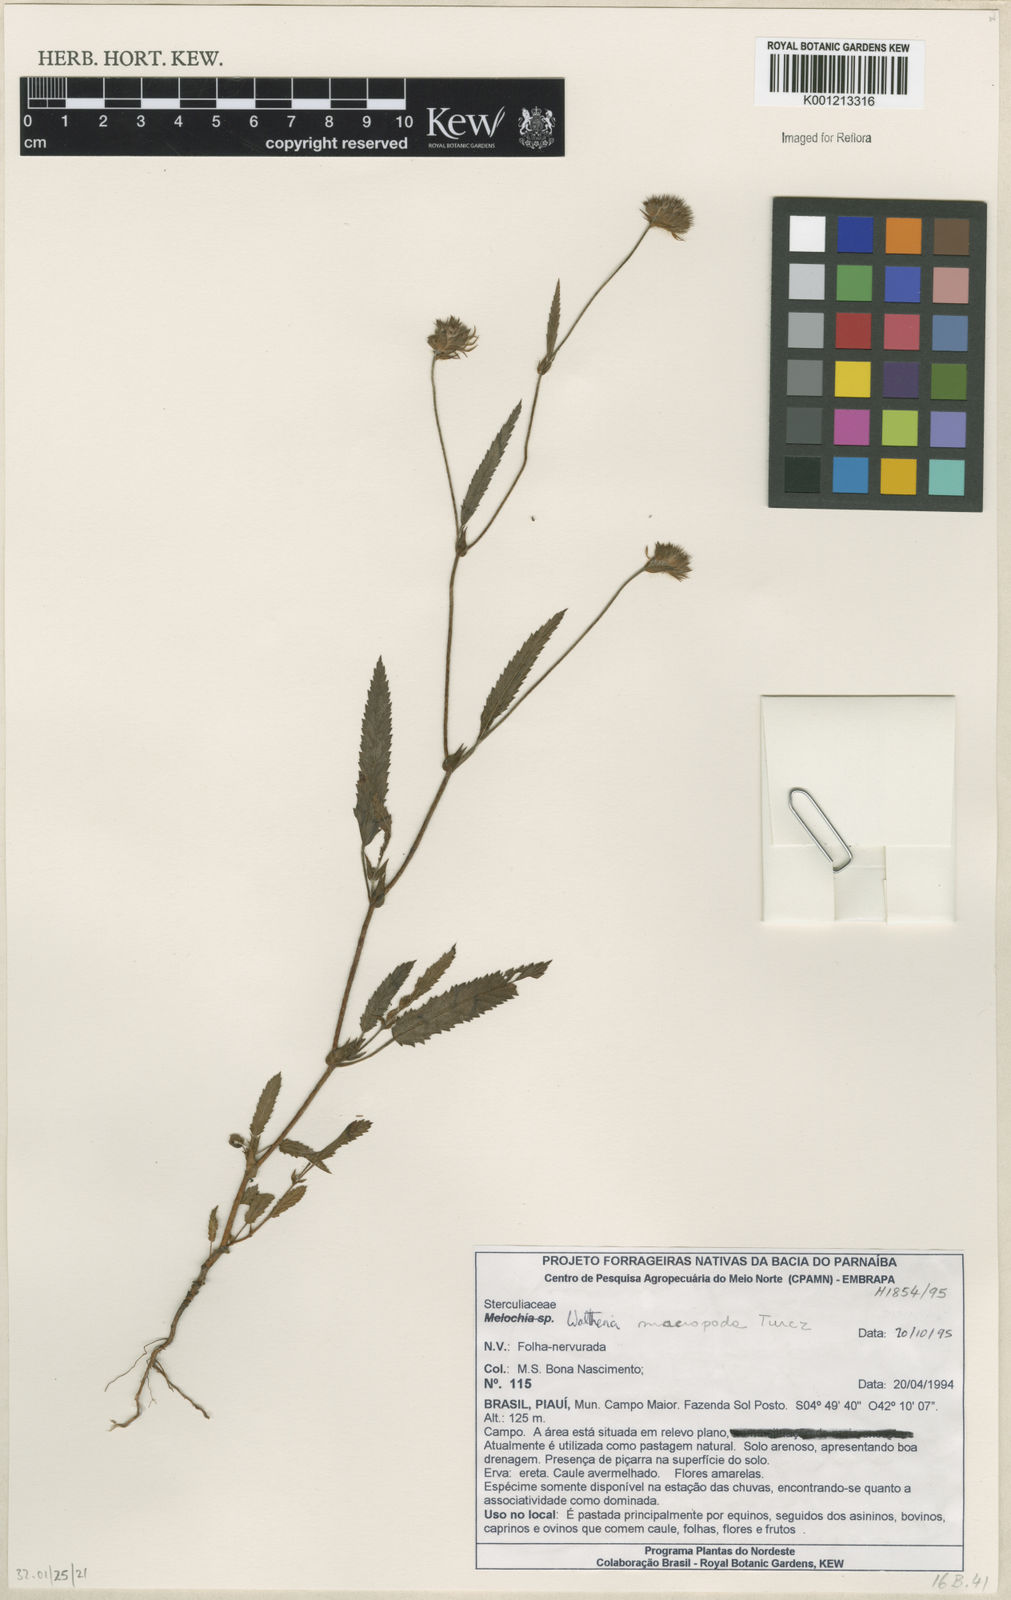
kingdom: Plantae
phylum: Tracheophyta
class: Magnoliopsida
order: Malvales
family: Malvaceae
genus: Waltheria
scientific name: Waltheria bracteosa
